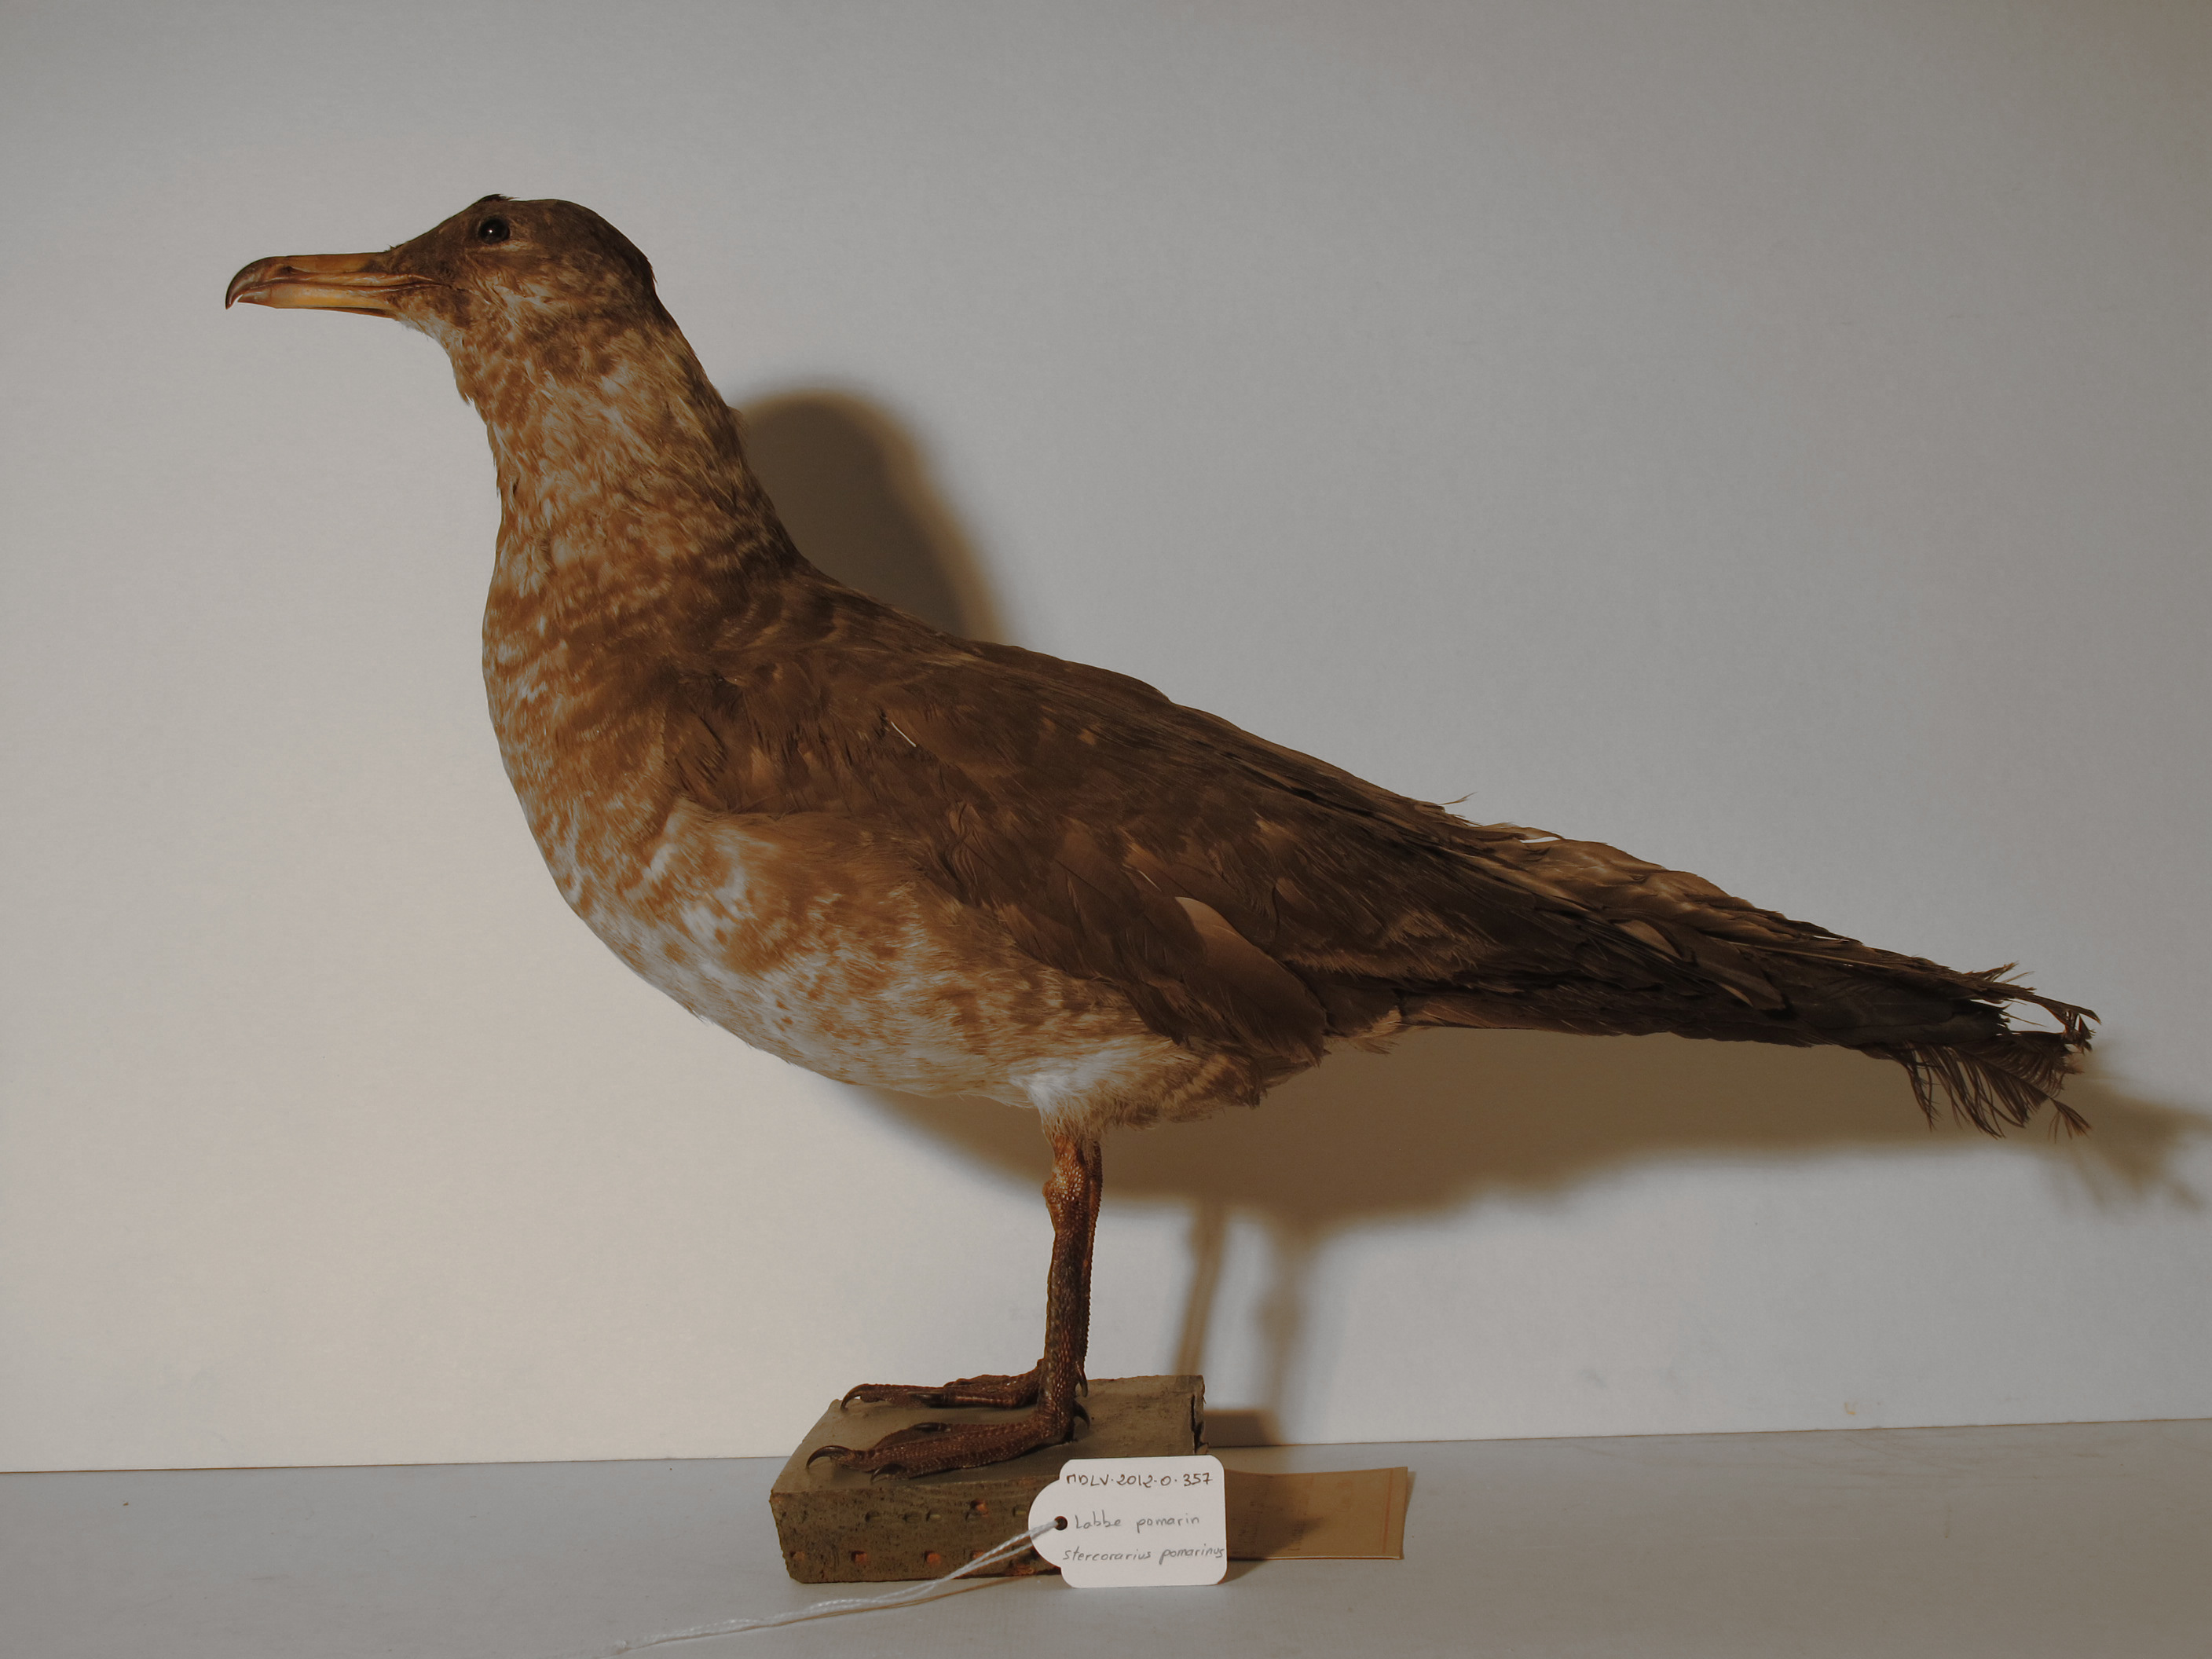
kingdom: Animalia
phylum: Chordata
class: Aves
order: Charadriiformes
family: Stercorariidae
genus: Stercorarius
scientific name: Stercorarius pomarinus
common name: Pomarine Skua
